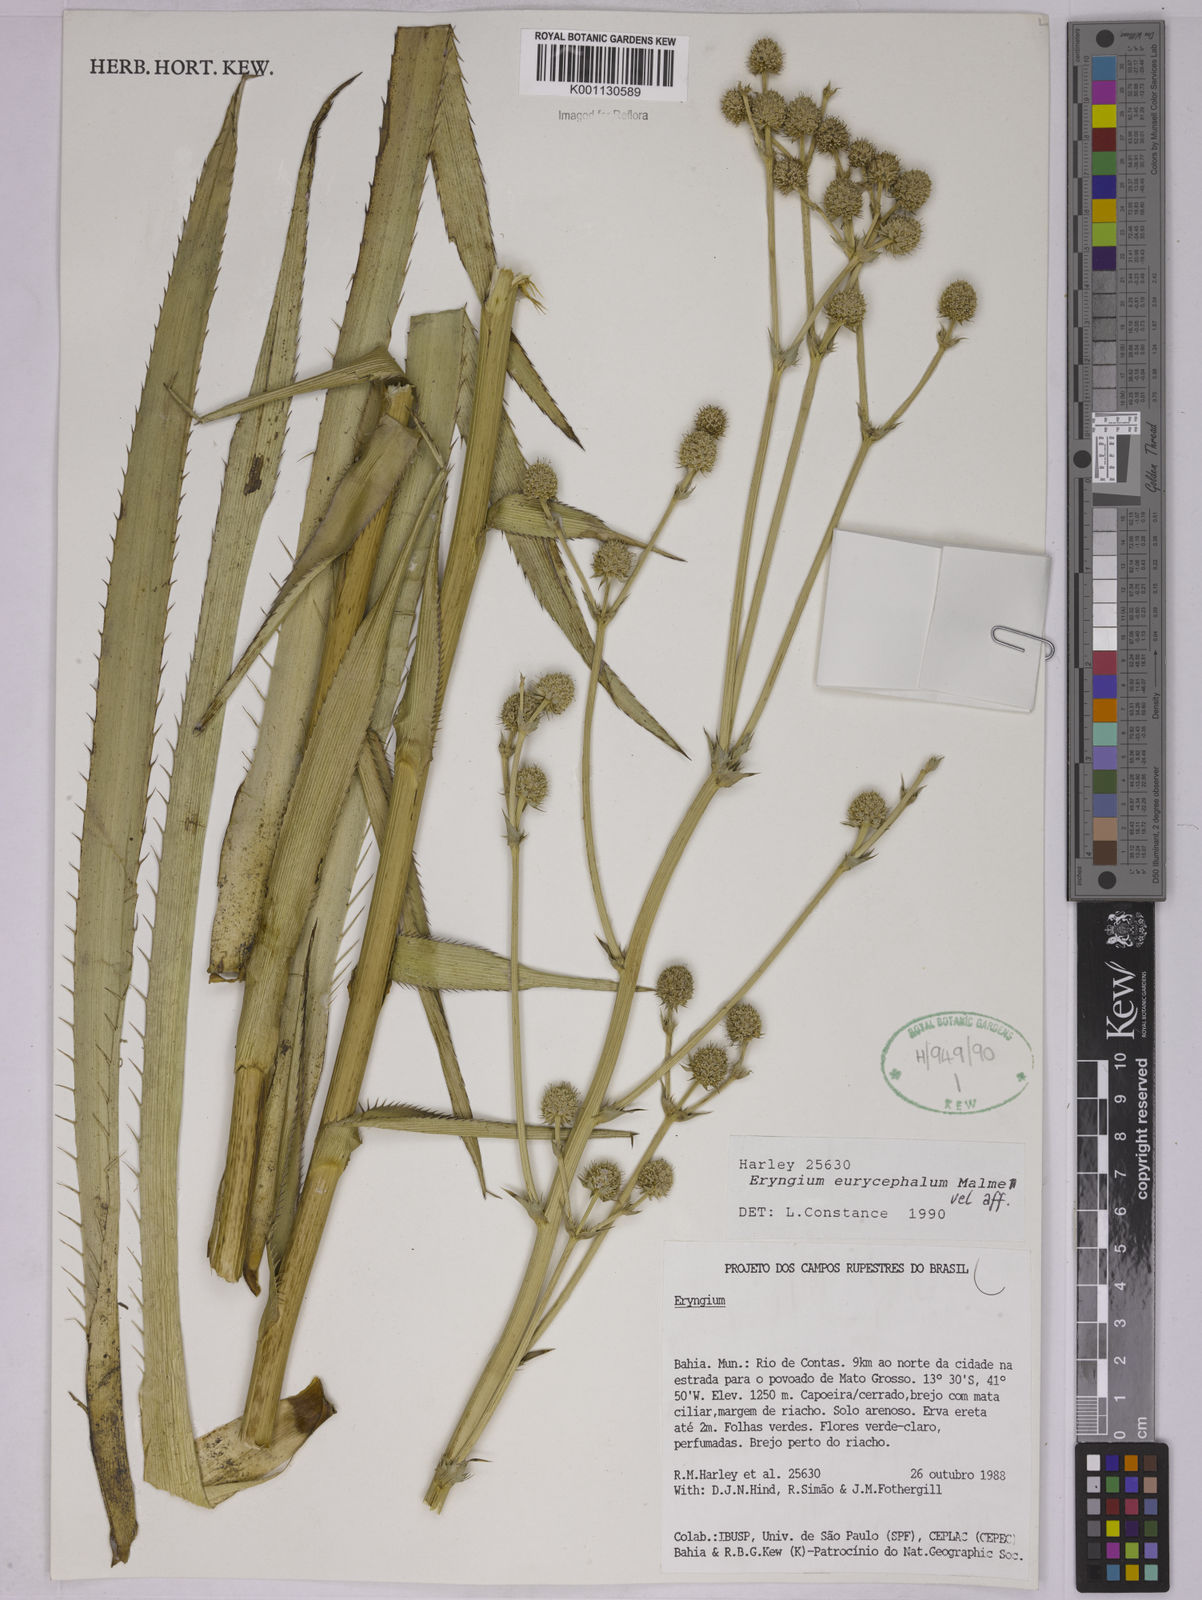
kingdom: Plantae
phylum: Tracheophyta
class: Magnoliopsida
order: Apiales
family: Apiaceae
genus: Eryngium
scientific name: Eryngium eurycephalum
